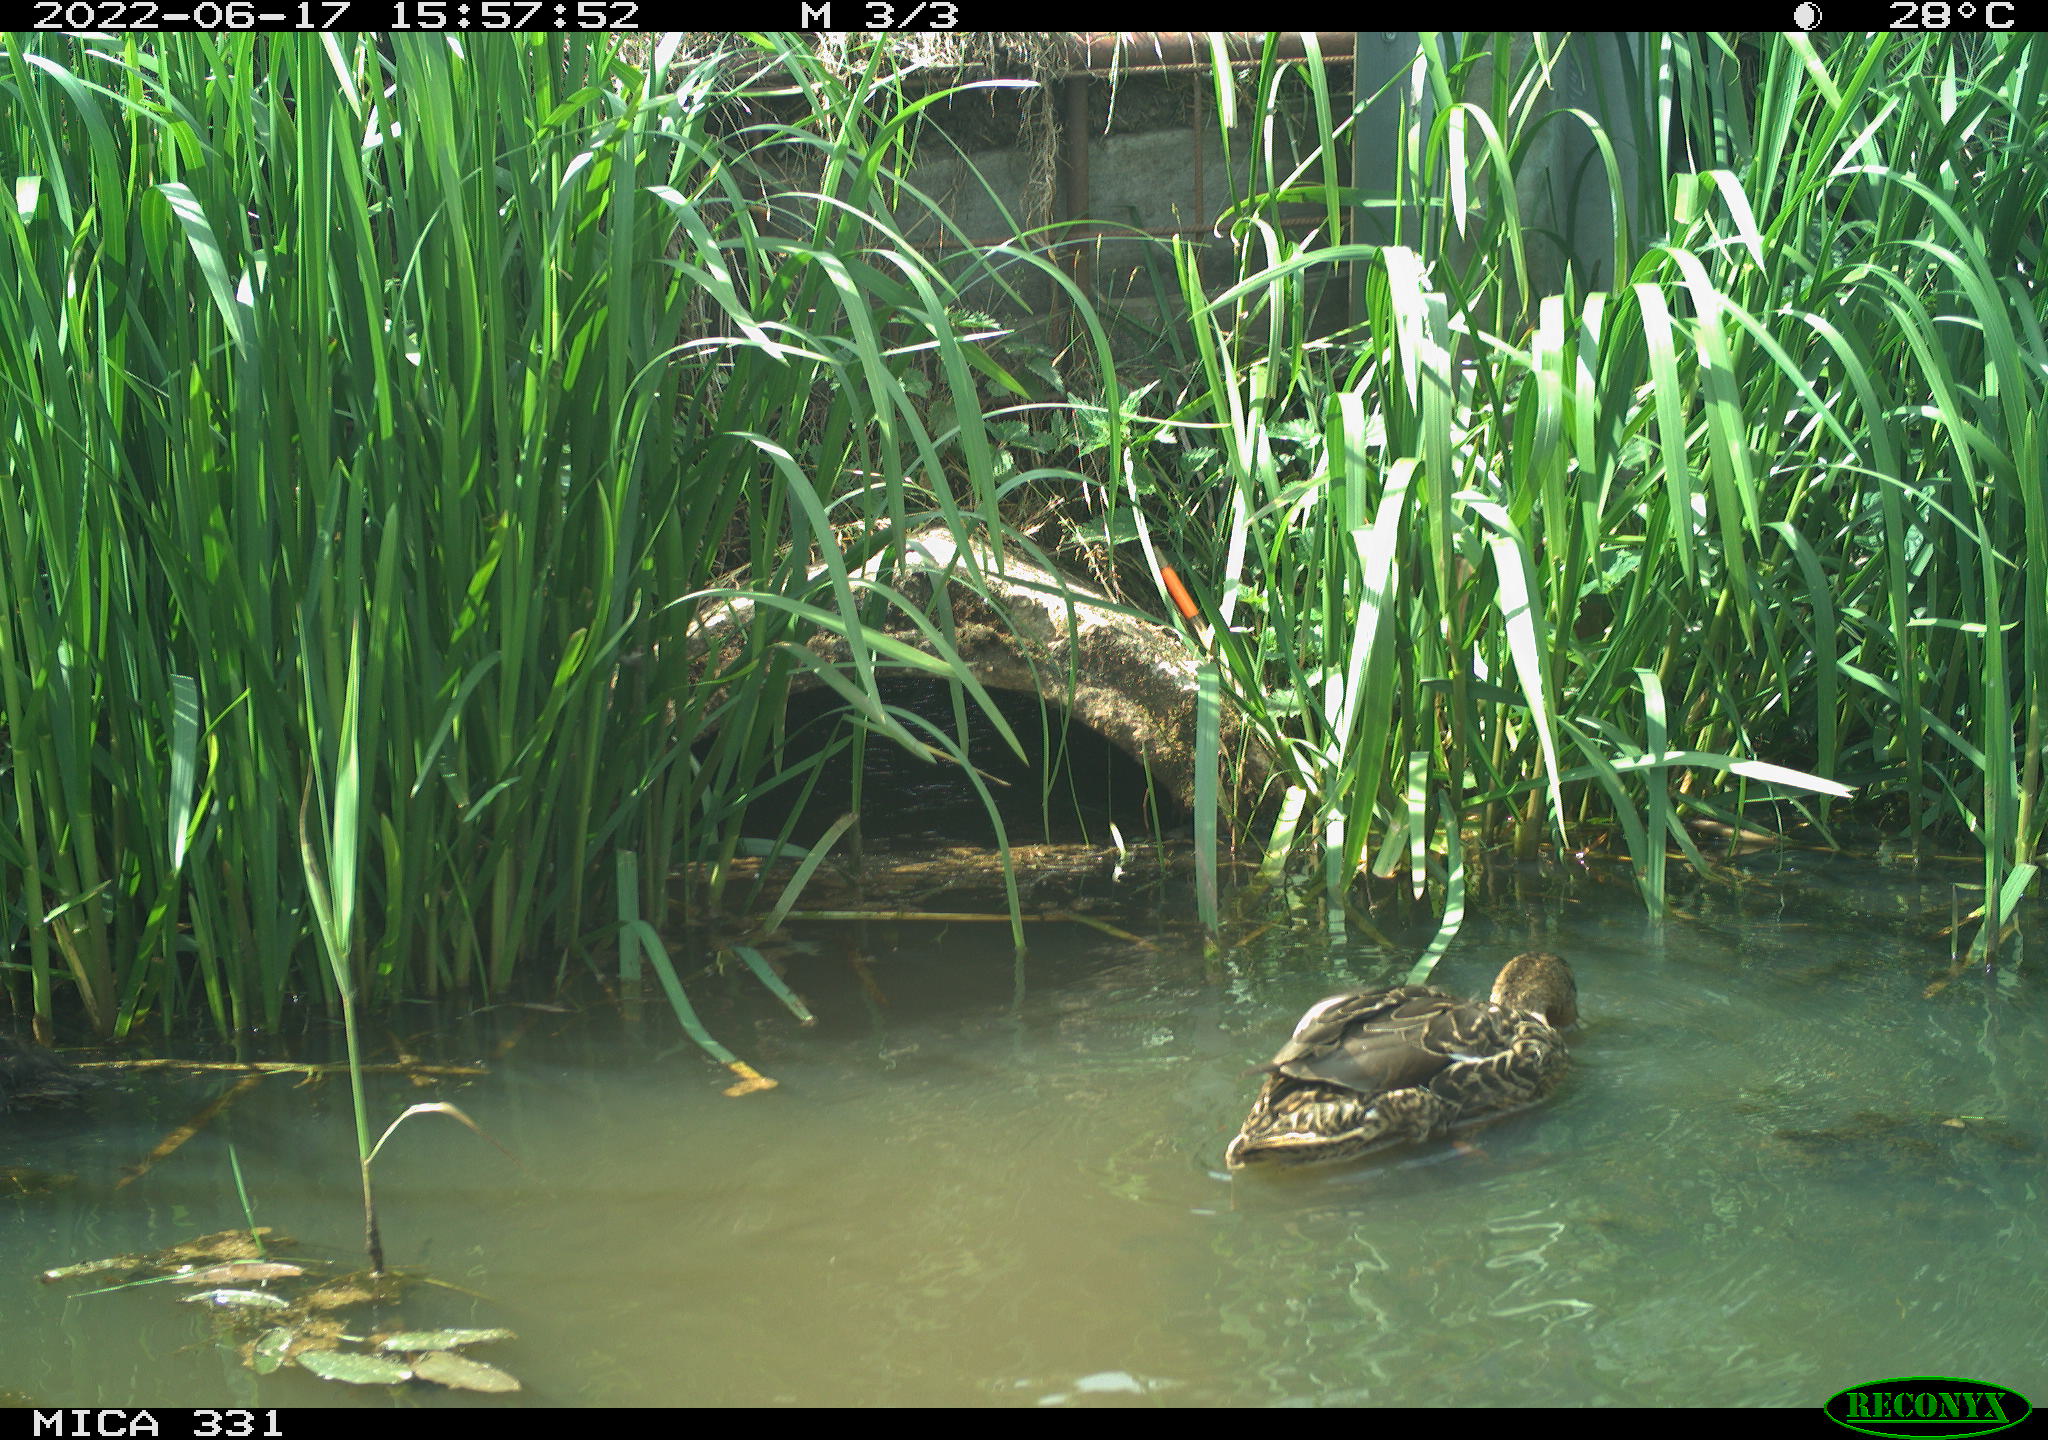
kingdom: Animalia
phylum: Chordata
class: Aves
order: Anseriformes
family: Anatidae
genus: Anas
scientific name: Anas platyrhynchos
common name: Mallard
